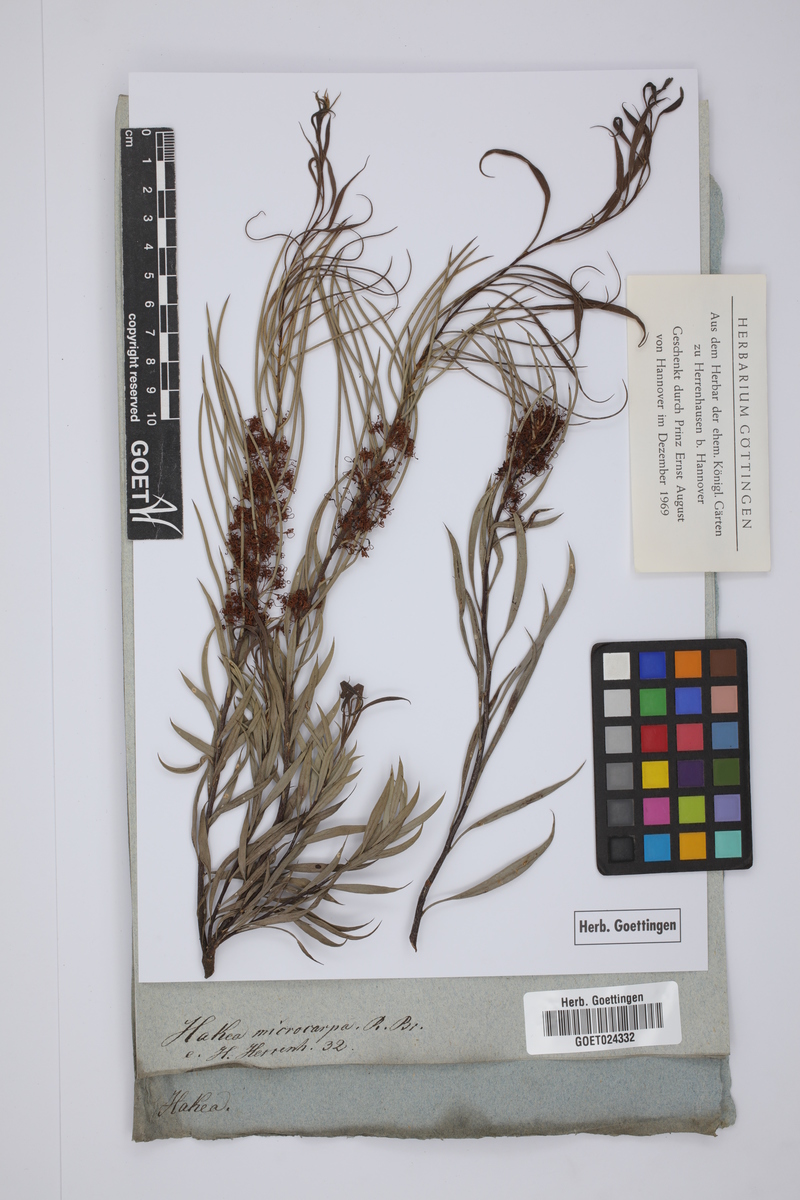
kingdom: Plantae
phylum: Tracheophyta
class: Magnoliopsida
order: Proteales
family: Proteaceae
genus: Hakea
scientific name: Hakea microcarpa
